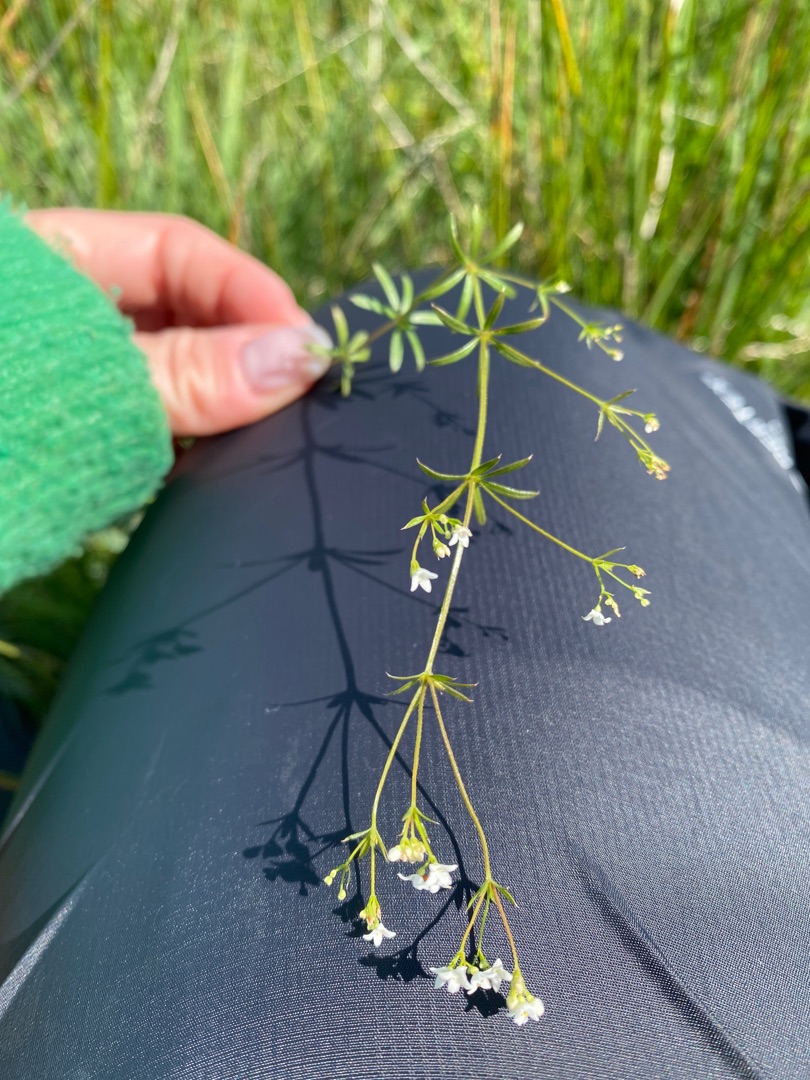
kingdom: Plantae
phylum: Tracheophyta
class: Magnoliopsida
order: Gentianales
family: Rubiaceae
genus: Galium
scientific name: Galium uliginosum
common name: Sump-snerre
